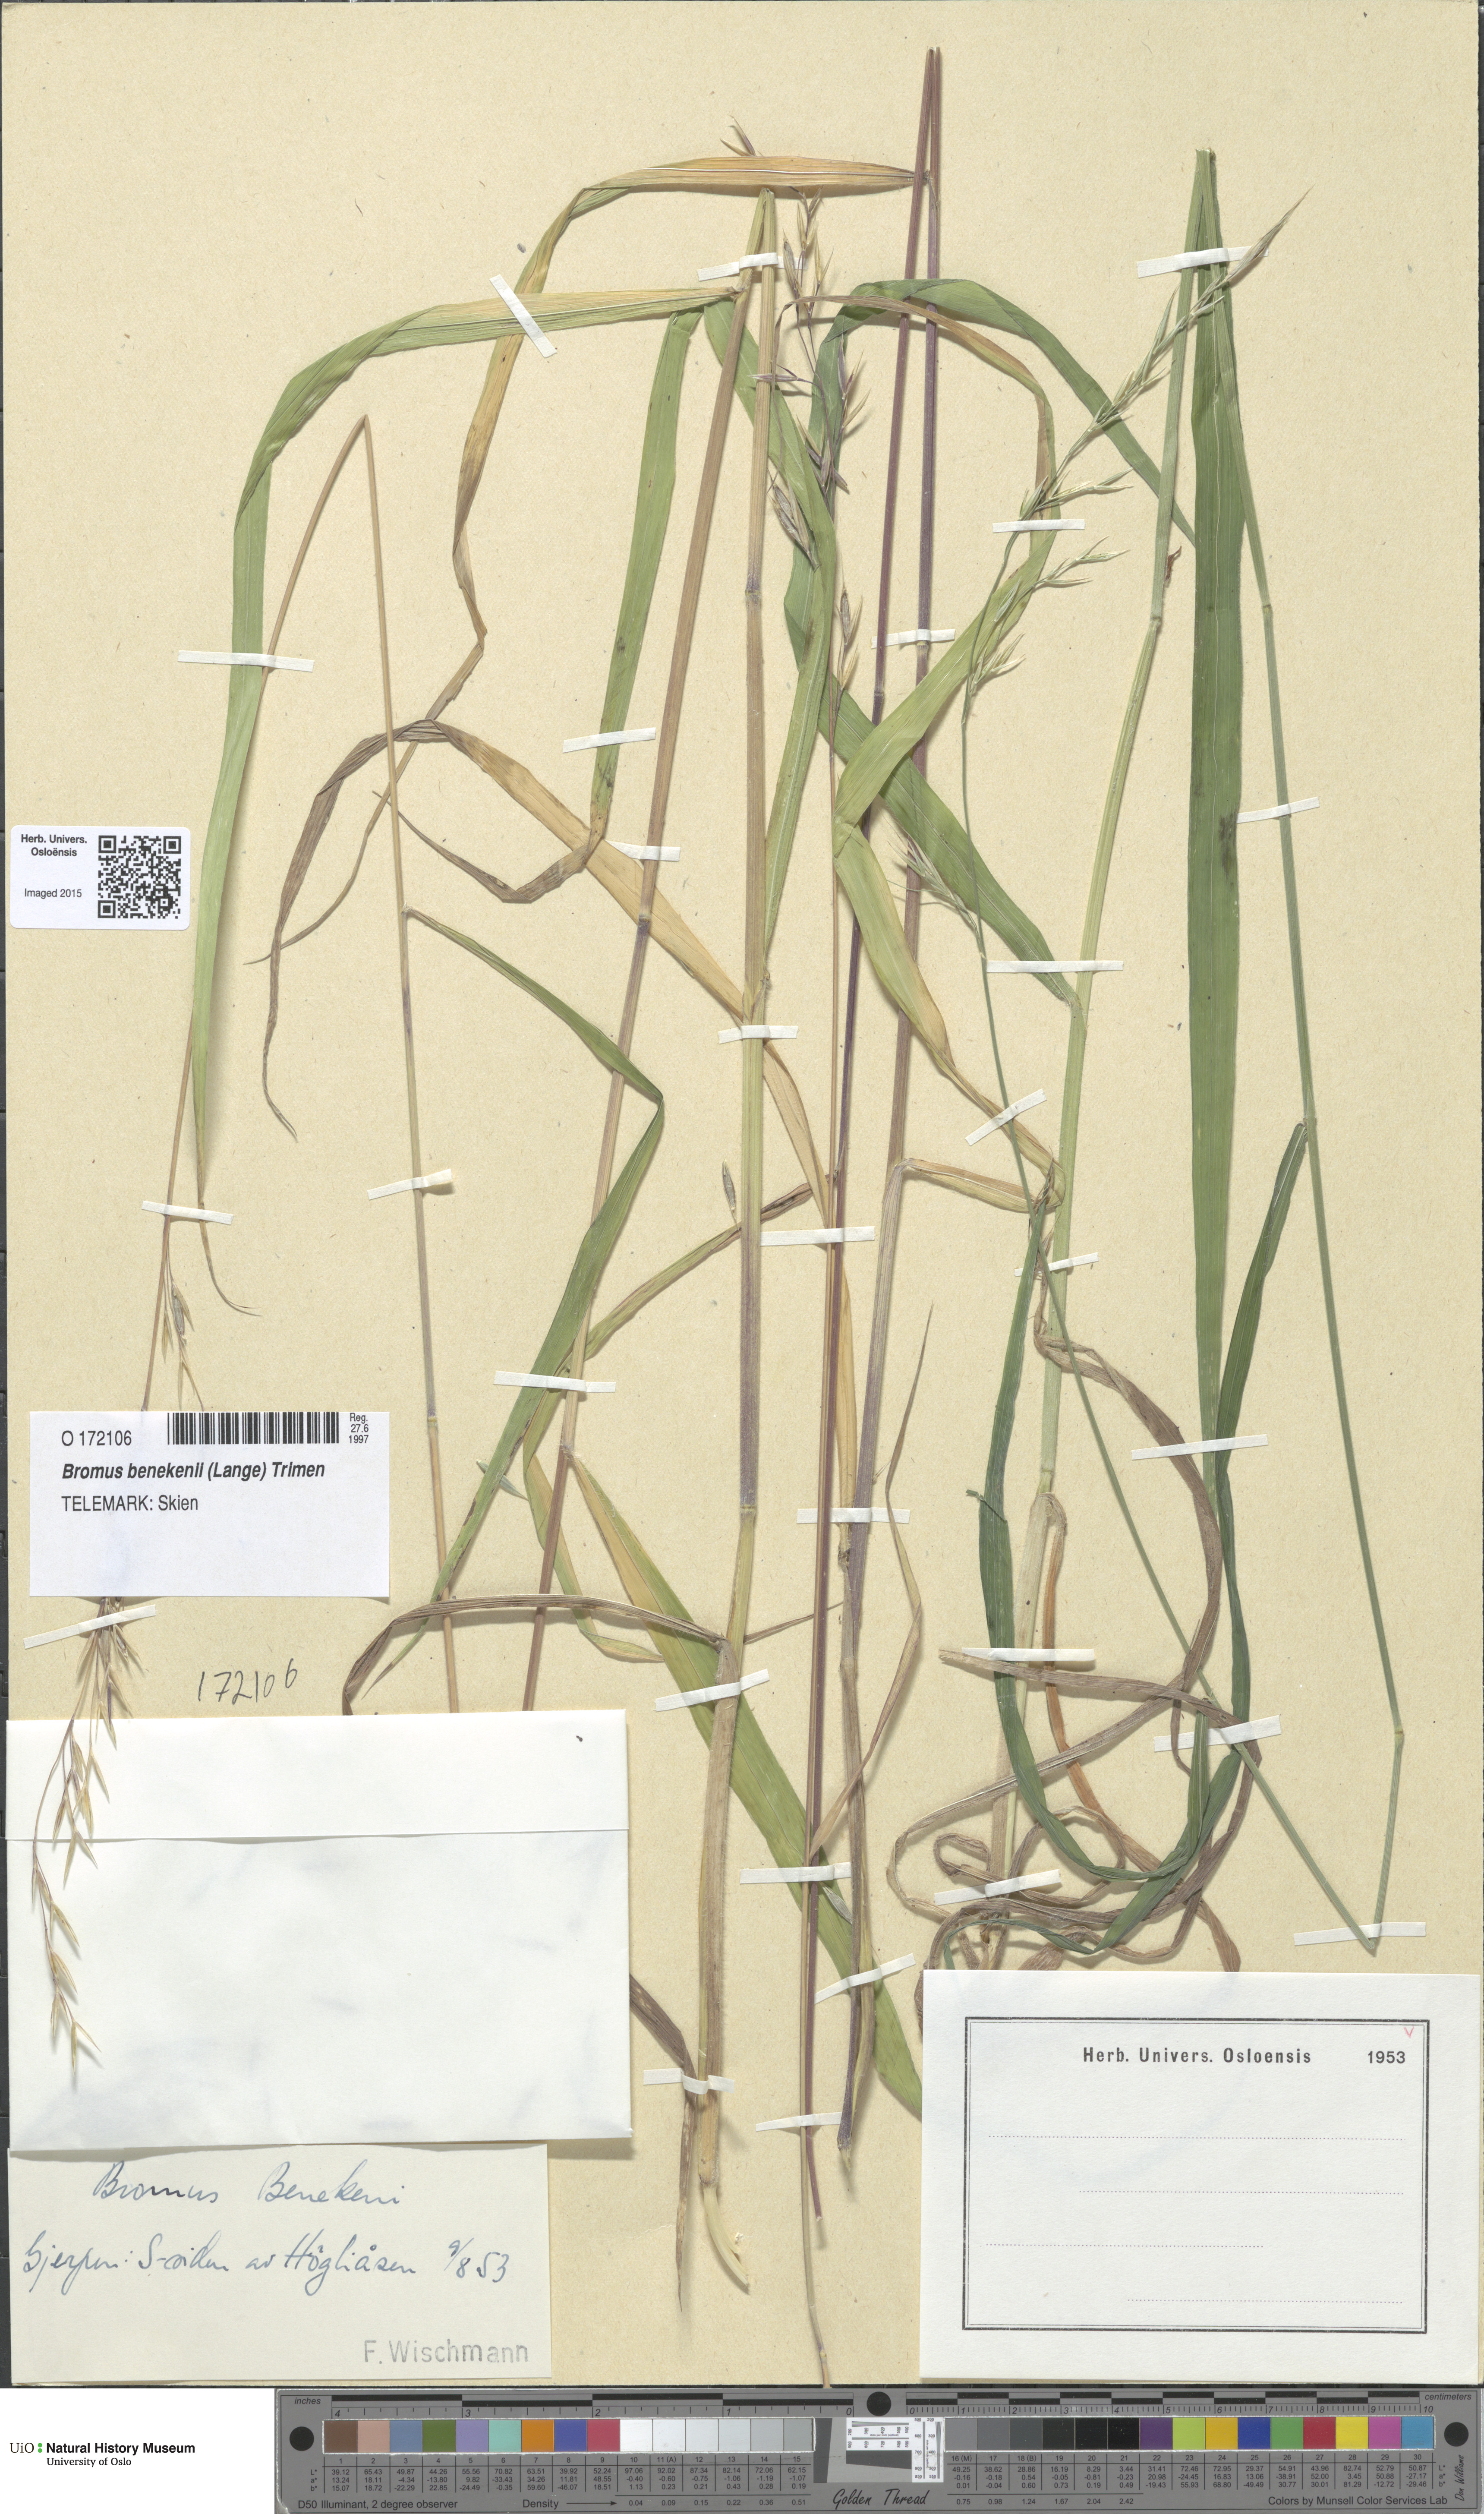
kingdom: Plantae
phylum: Tracheophyta
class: Liliopsida
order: Poales
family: Poaceae
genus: Bromus
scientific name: Bromus benekenii
